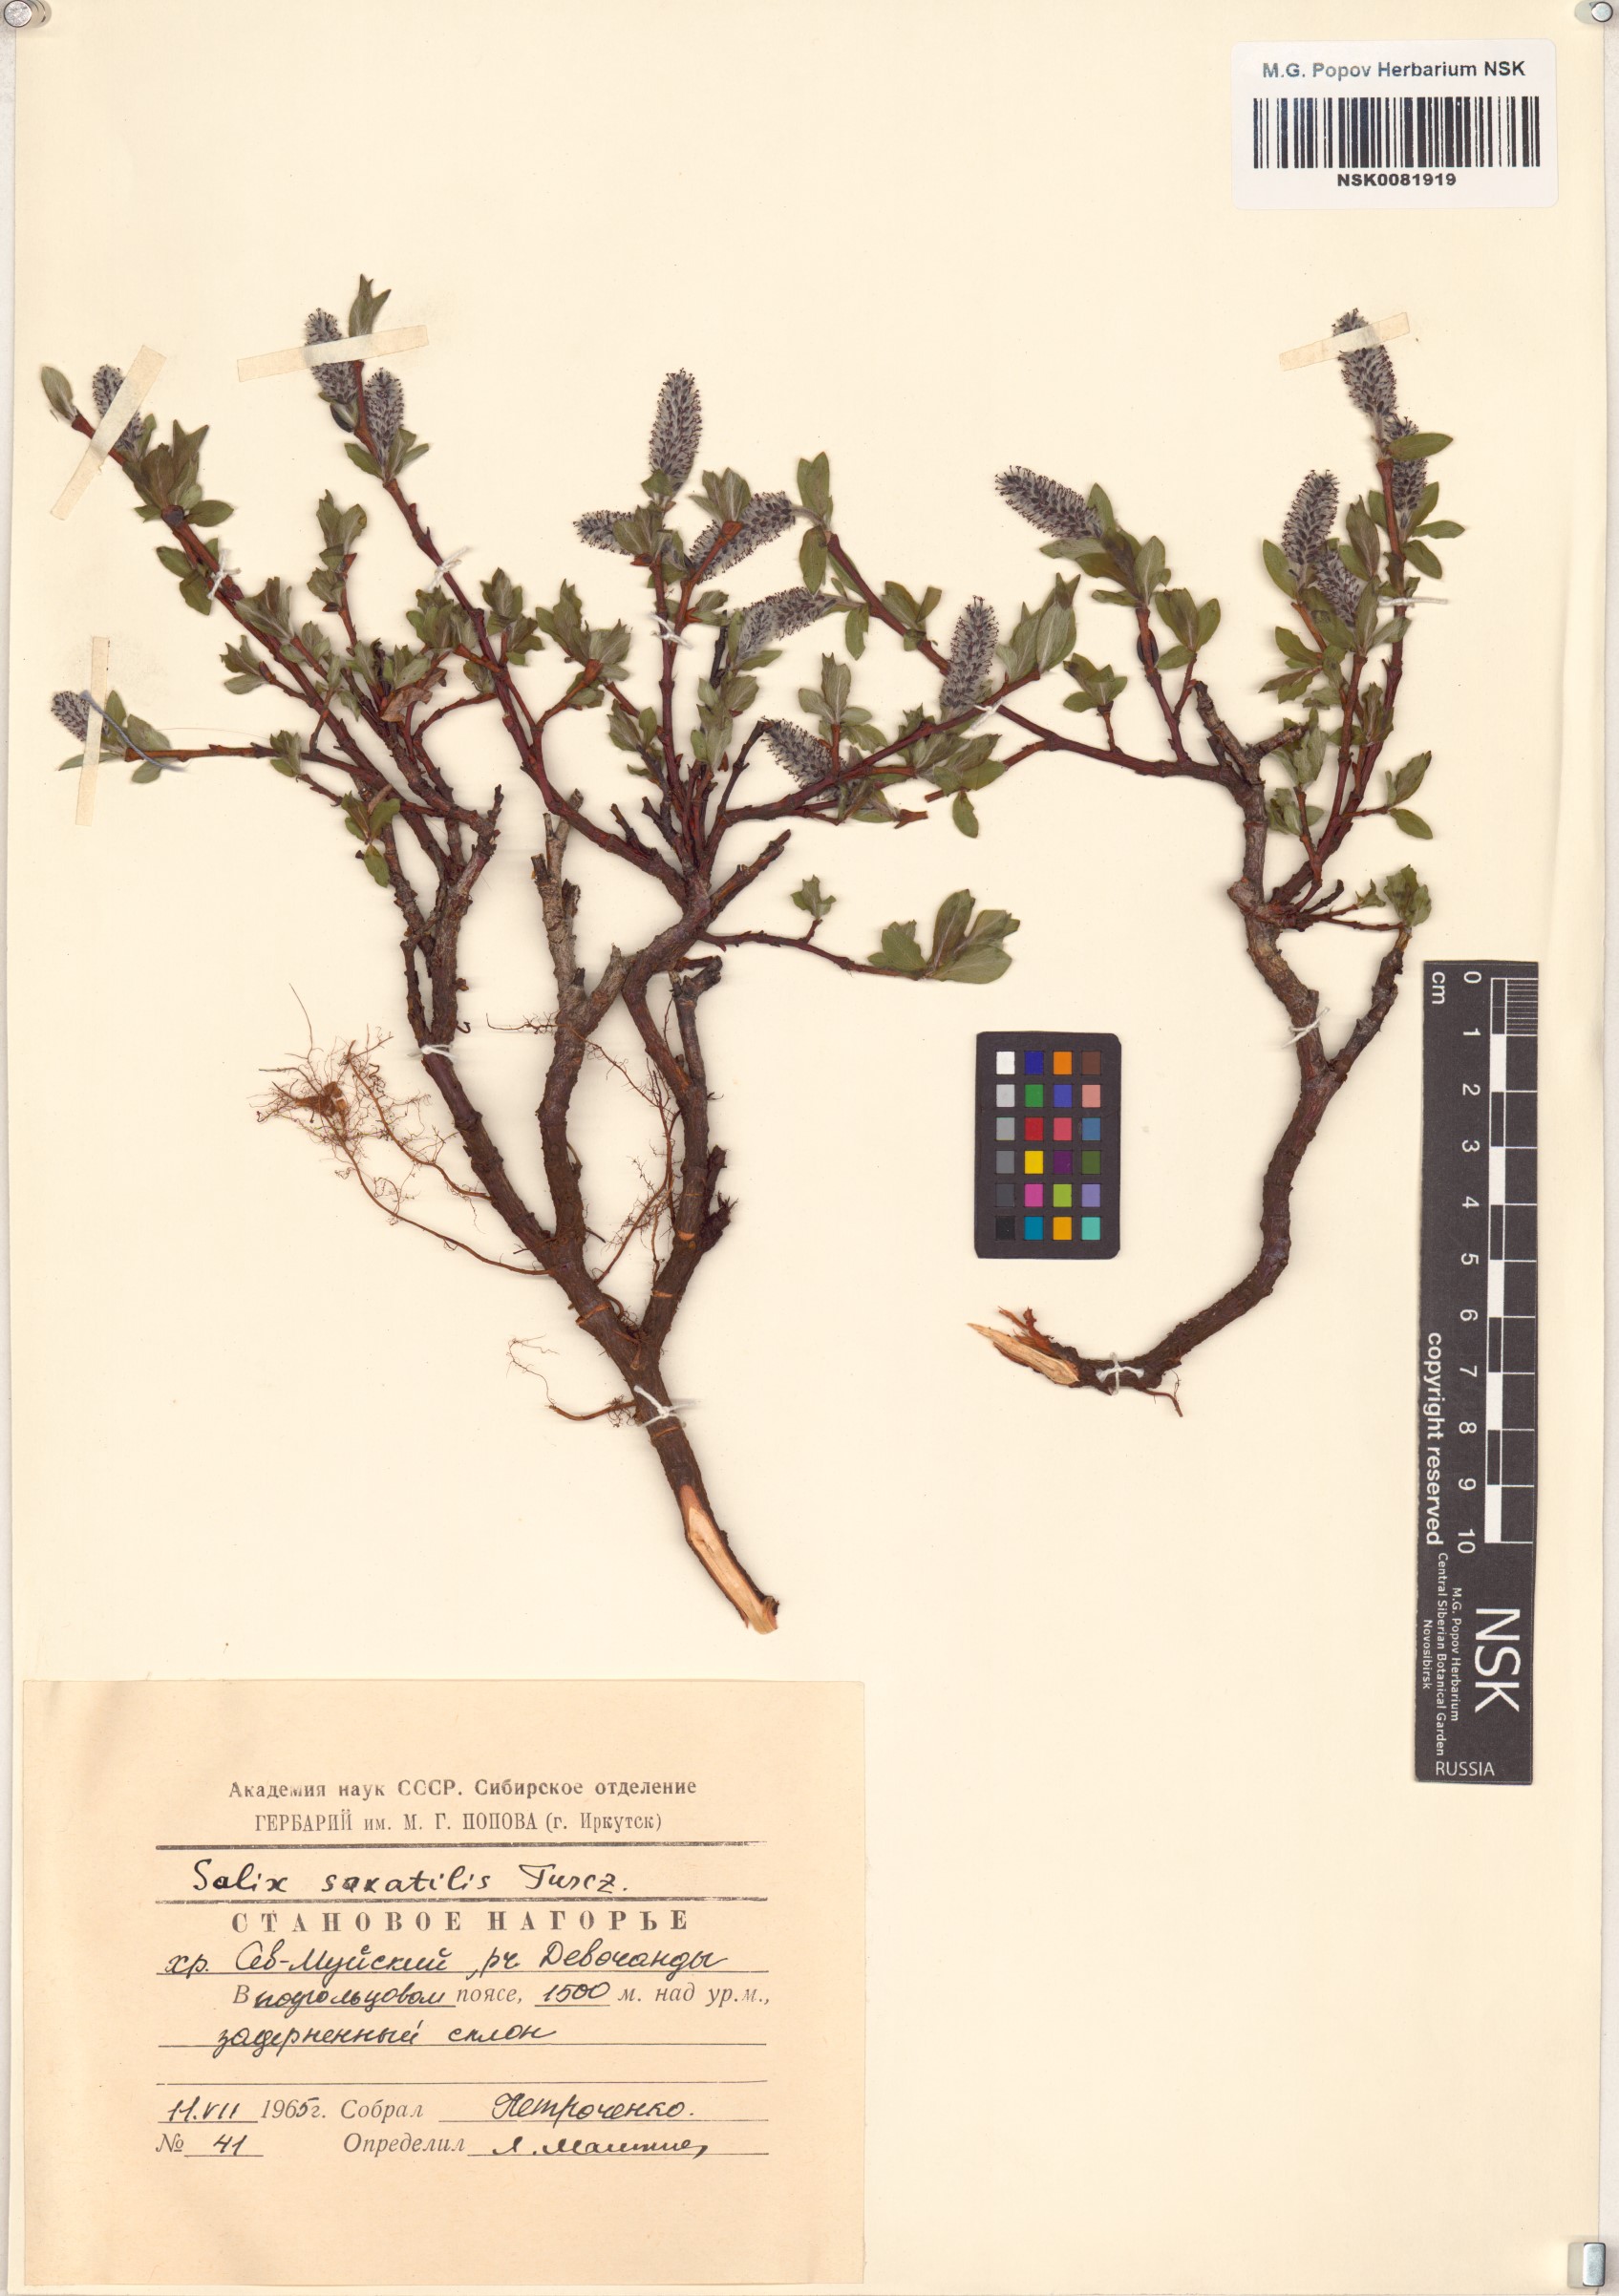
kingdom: Plantae
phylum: Tracheophyta
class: Magnoliopsida
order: Malpighiales
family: Salicaceae
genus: Salix
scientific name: Salix saxatilis
